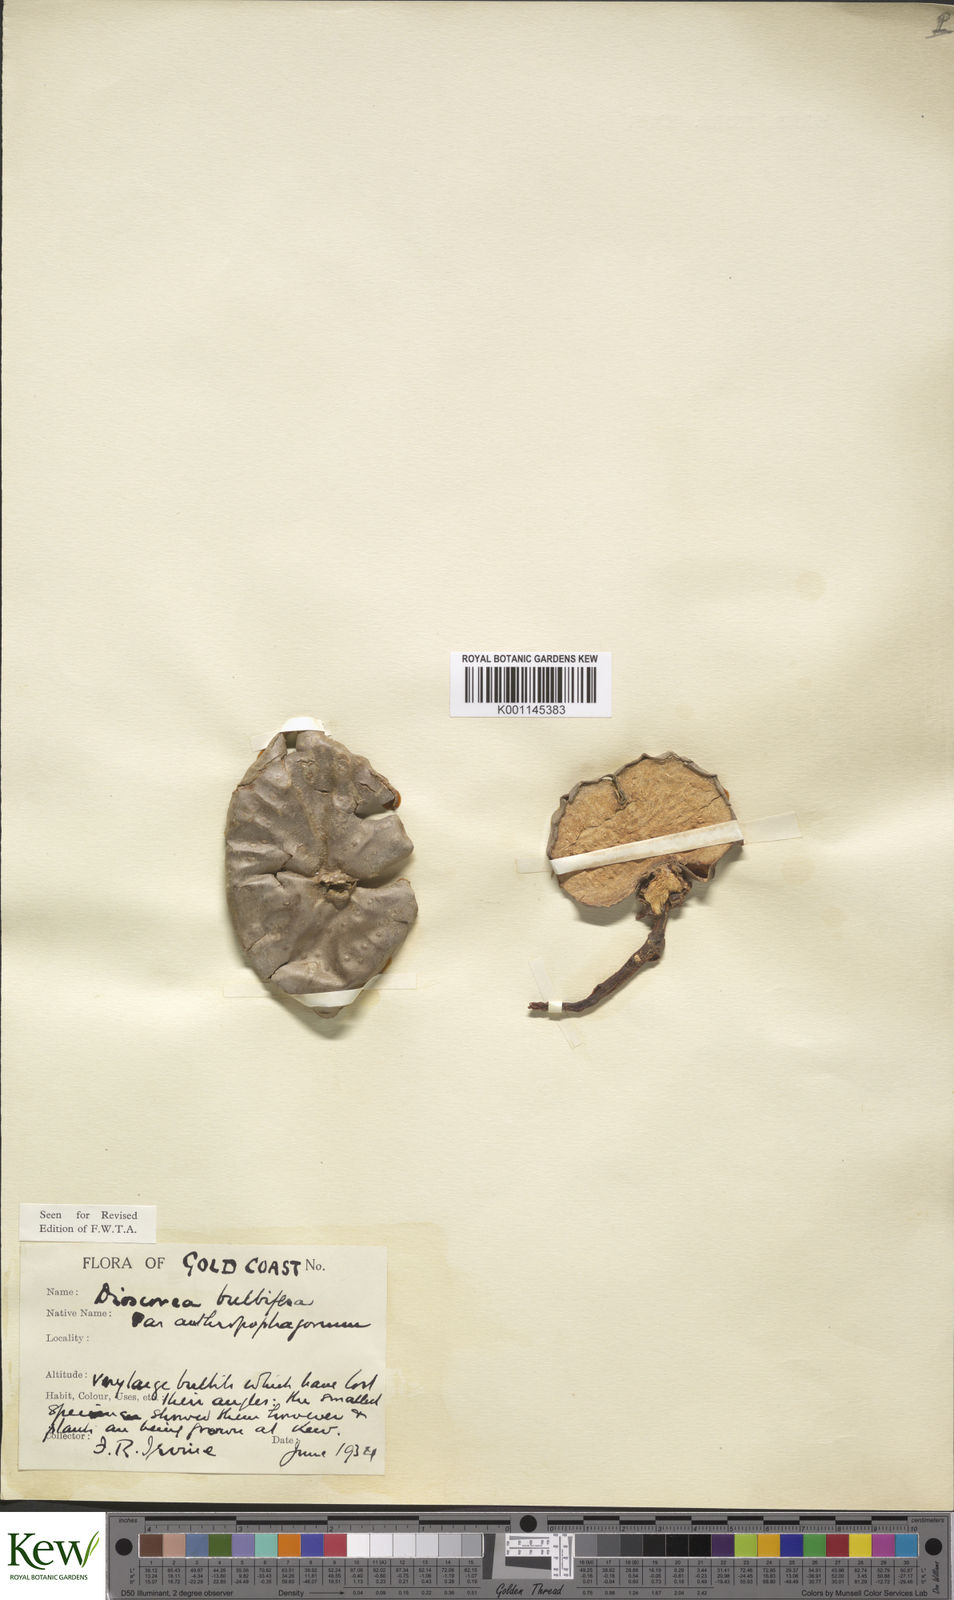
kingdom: Plantae
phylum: Tracheophyta
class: Liliopsida
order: Dioscoreales
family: Dioscoreaceae
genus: Dioscorea
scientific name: Dioscorea bulbifera
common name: Air yam
